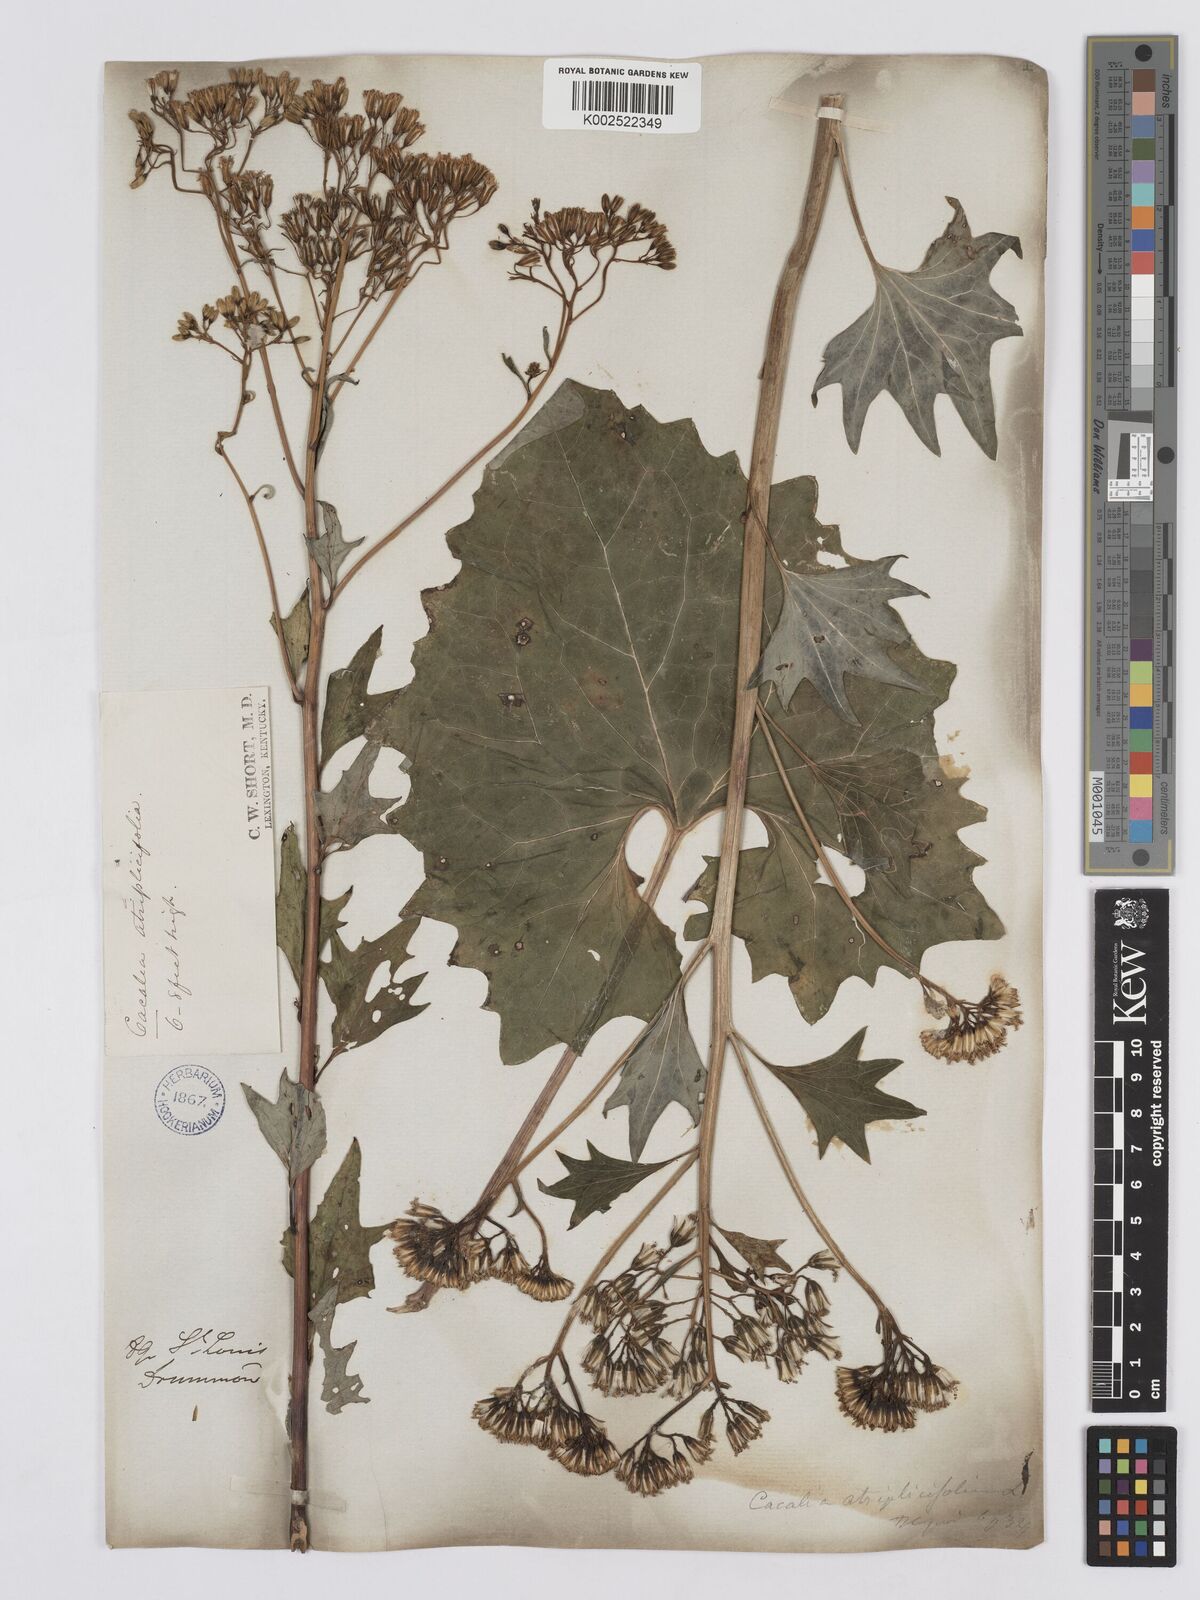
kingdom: Plantae
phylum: Tracheophyta
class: Magnoliopsida
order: Asterales
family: Asteraceae
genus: Arnoglossum
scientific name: Arnoglossum atriplicifolium
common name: Pale indian-plantain
